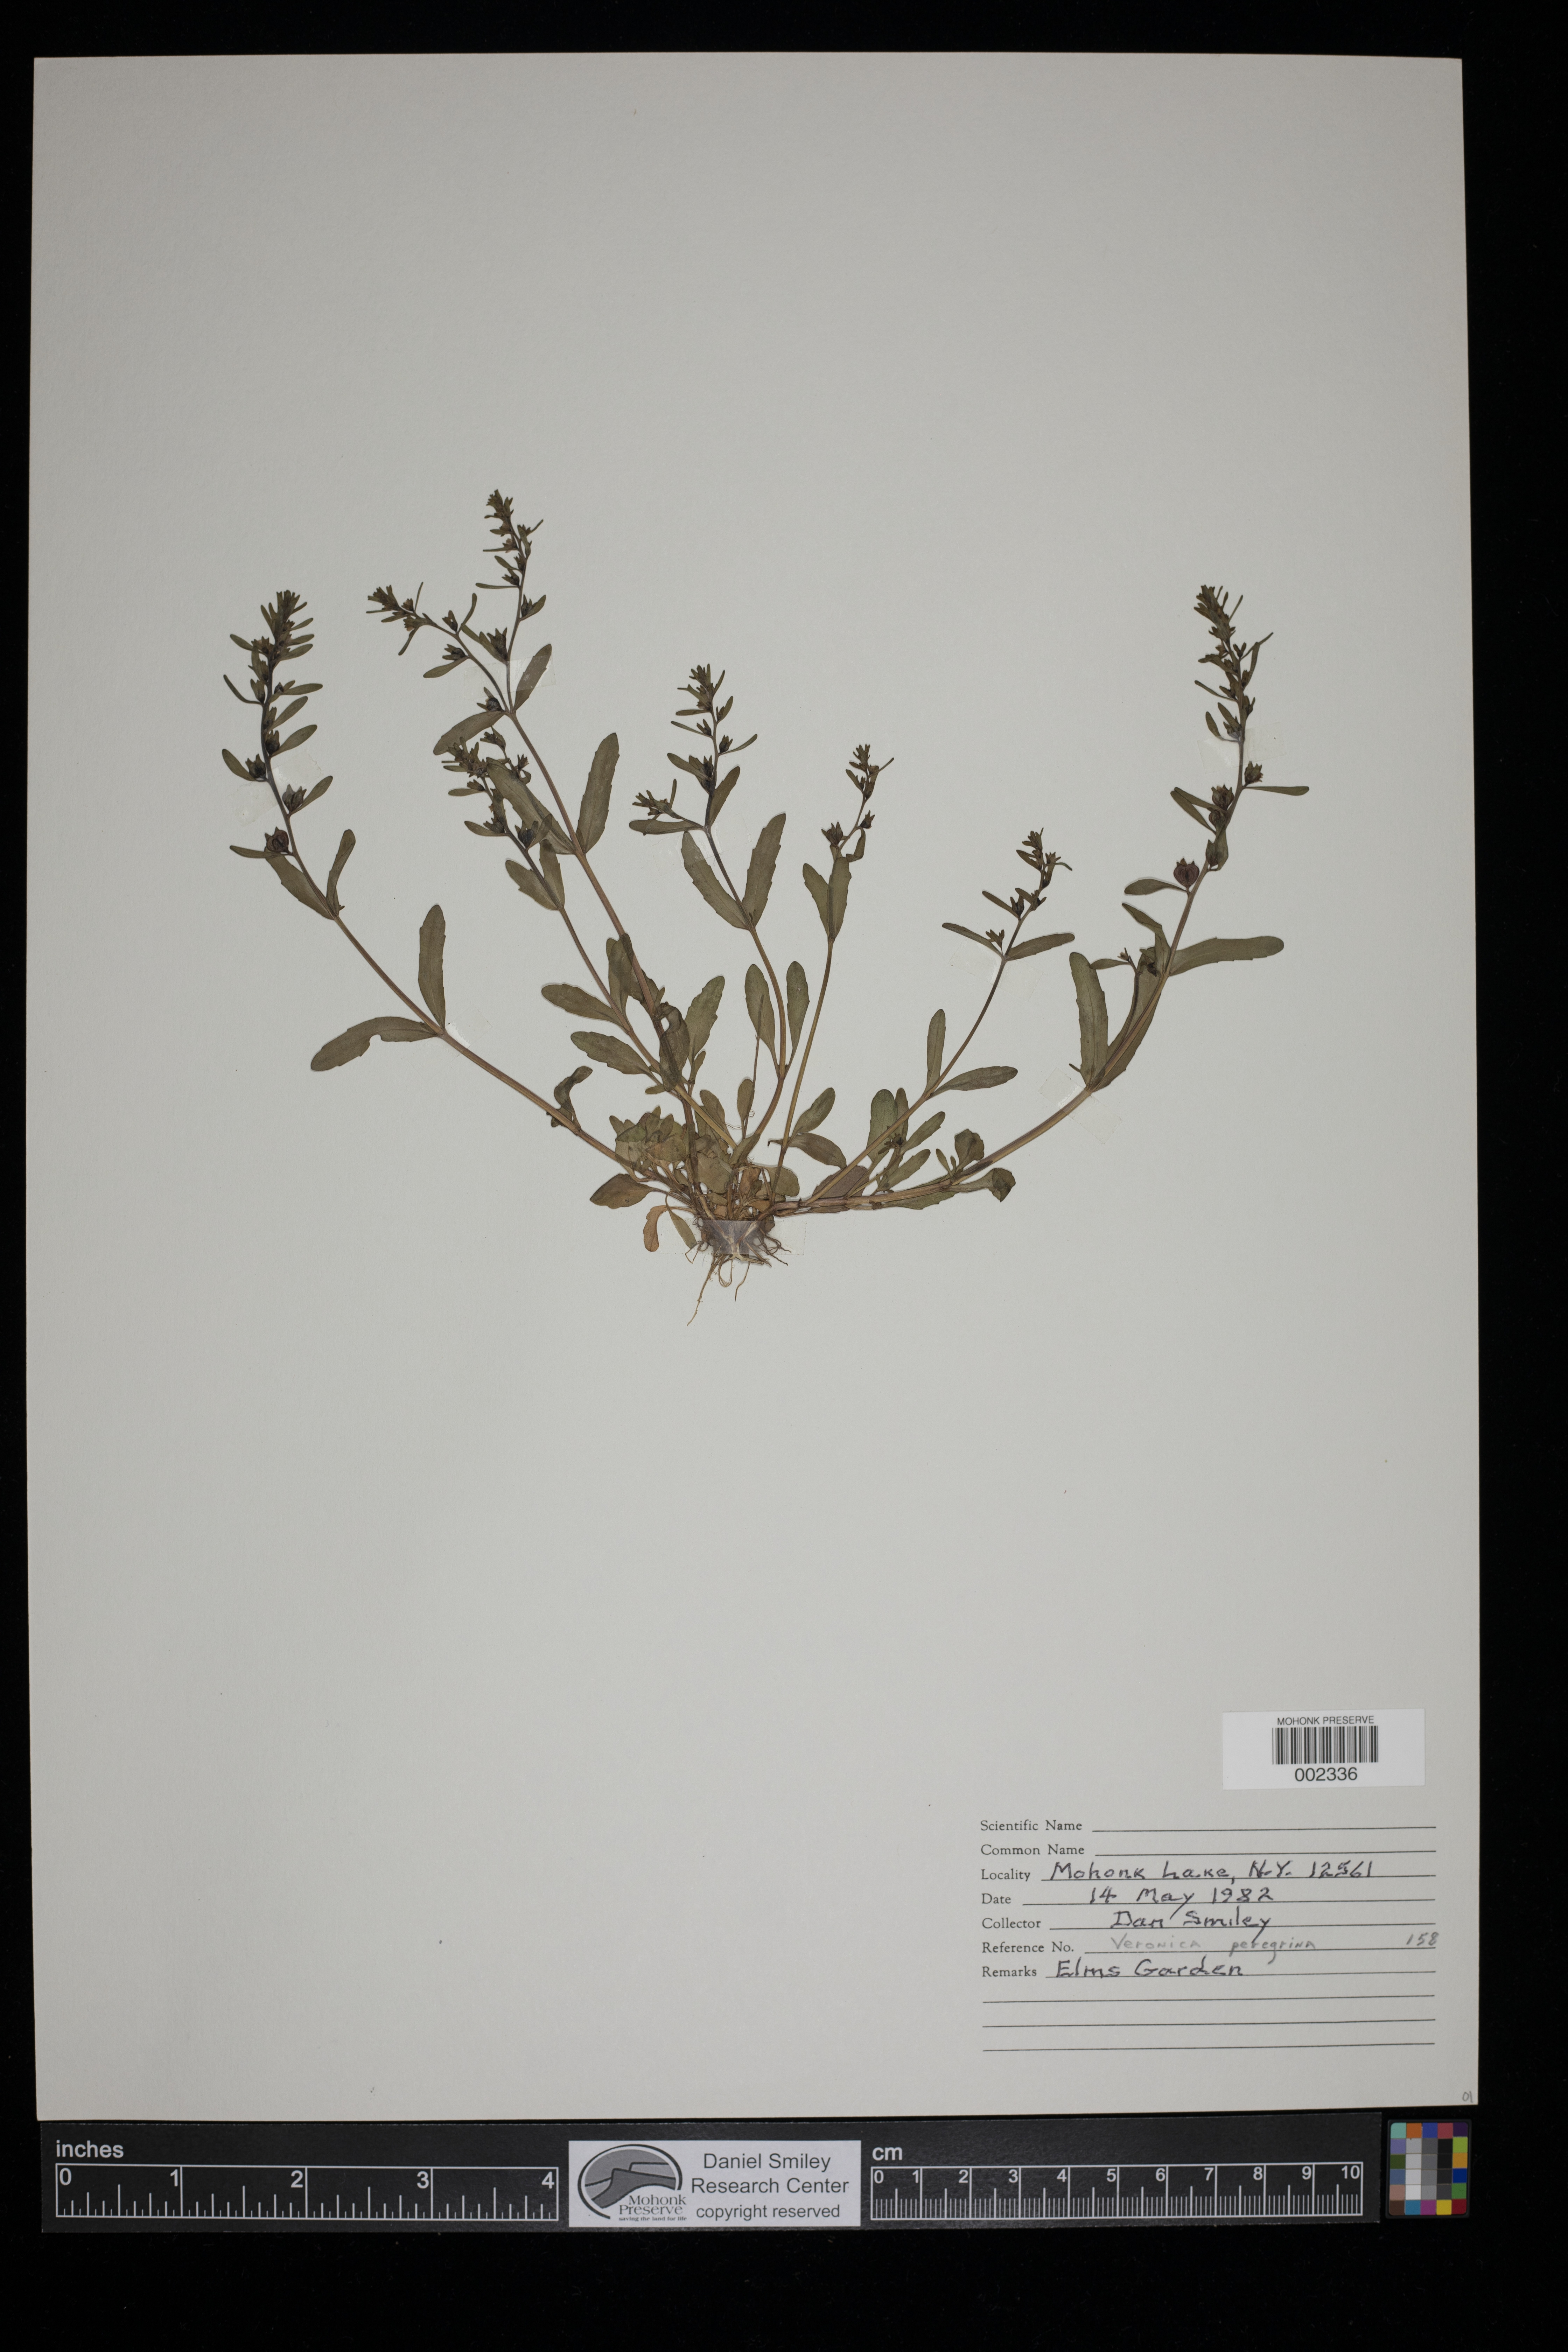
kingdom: Plantae
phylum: Tracheophyta
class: Magnoliopsida
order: Lamiales
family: Plantaginaceae
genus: Veronica
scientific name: Veronica peregrina
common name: Neckweed
